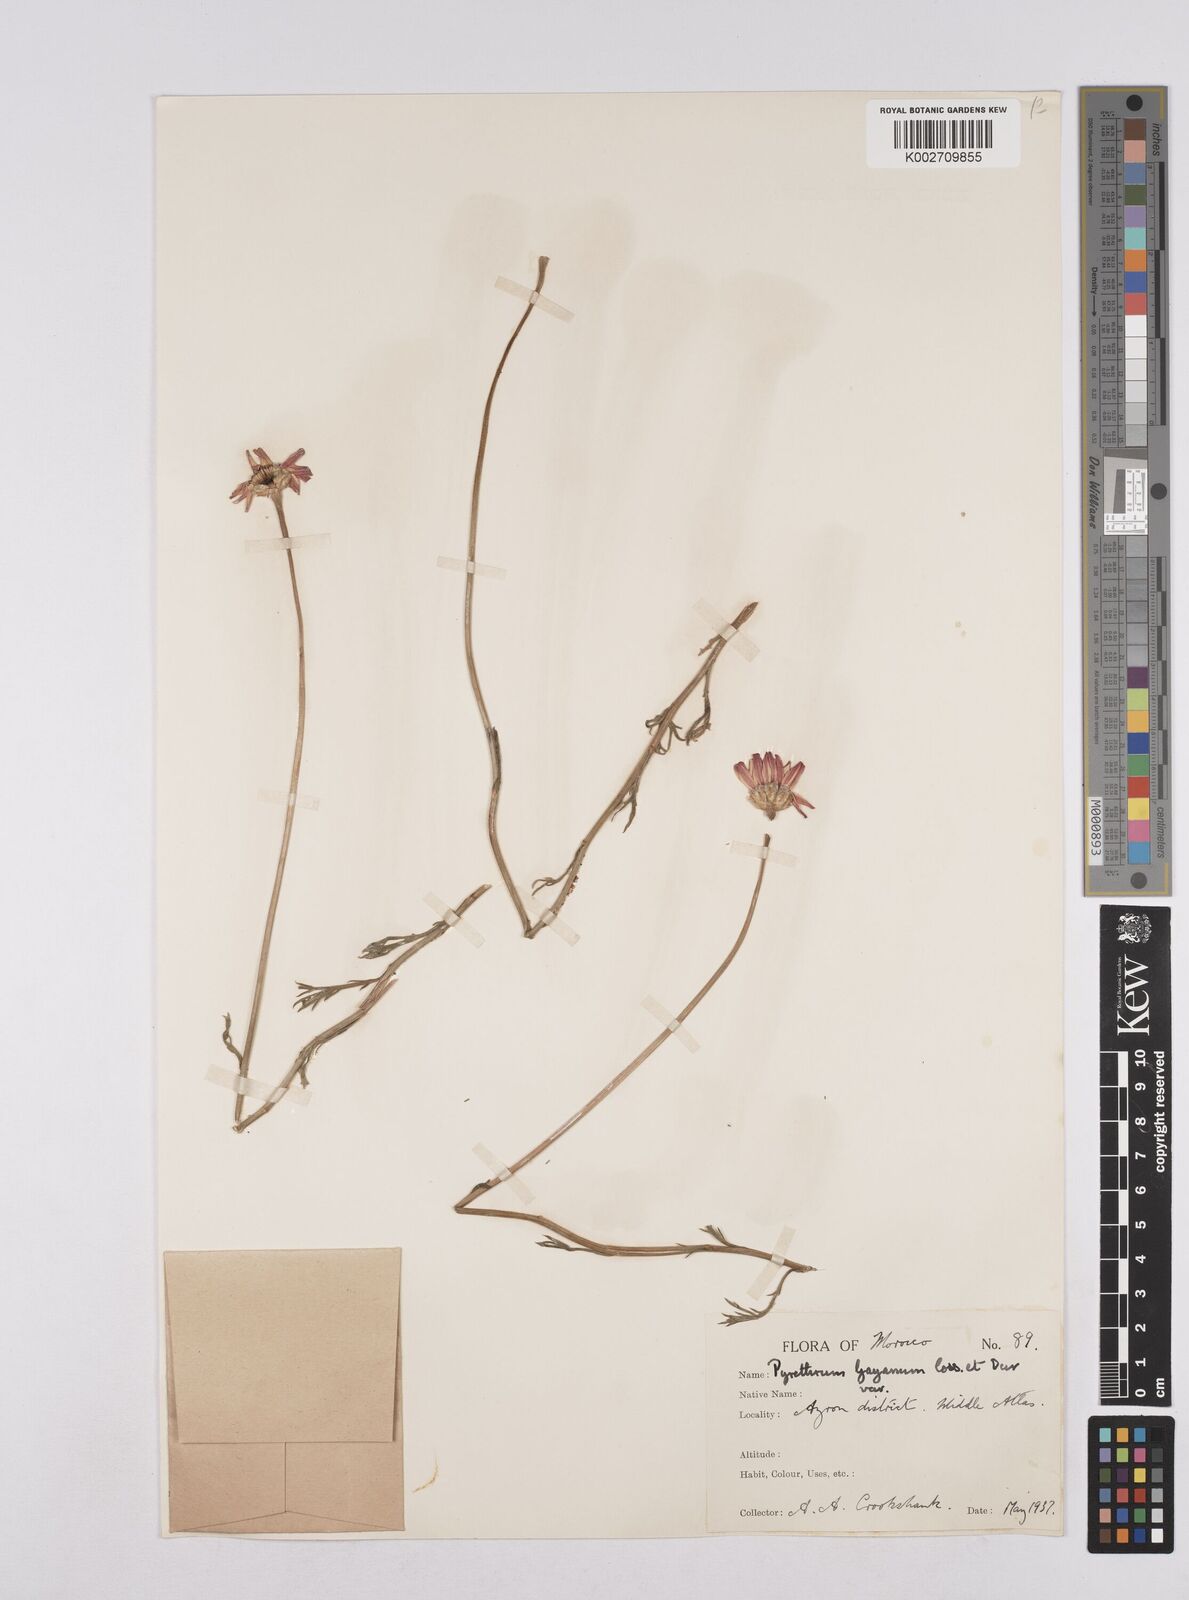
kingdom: Plantae
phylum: Tracheophyta
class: Magnoliopsida
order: Asterales
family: Asteraceae
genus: Rhodanthemum
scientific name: Rhodanthemum gayanum
